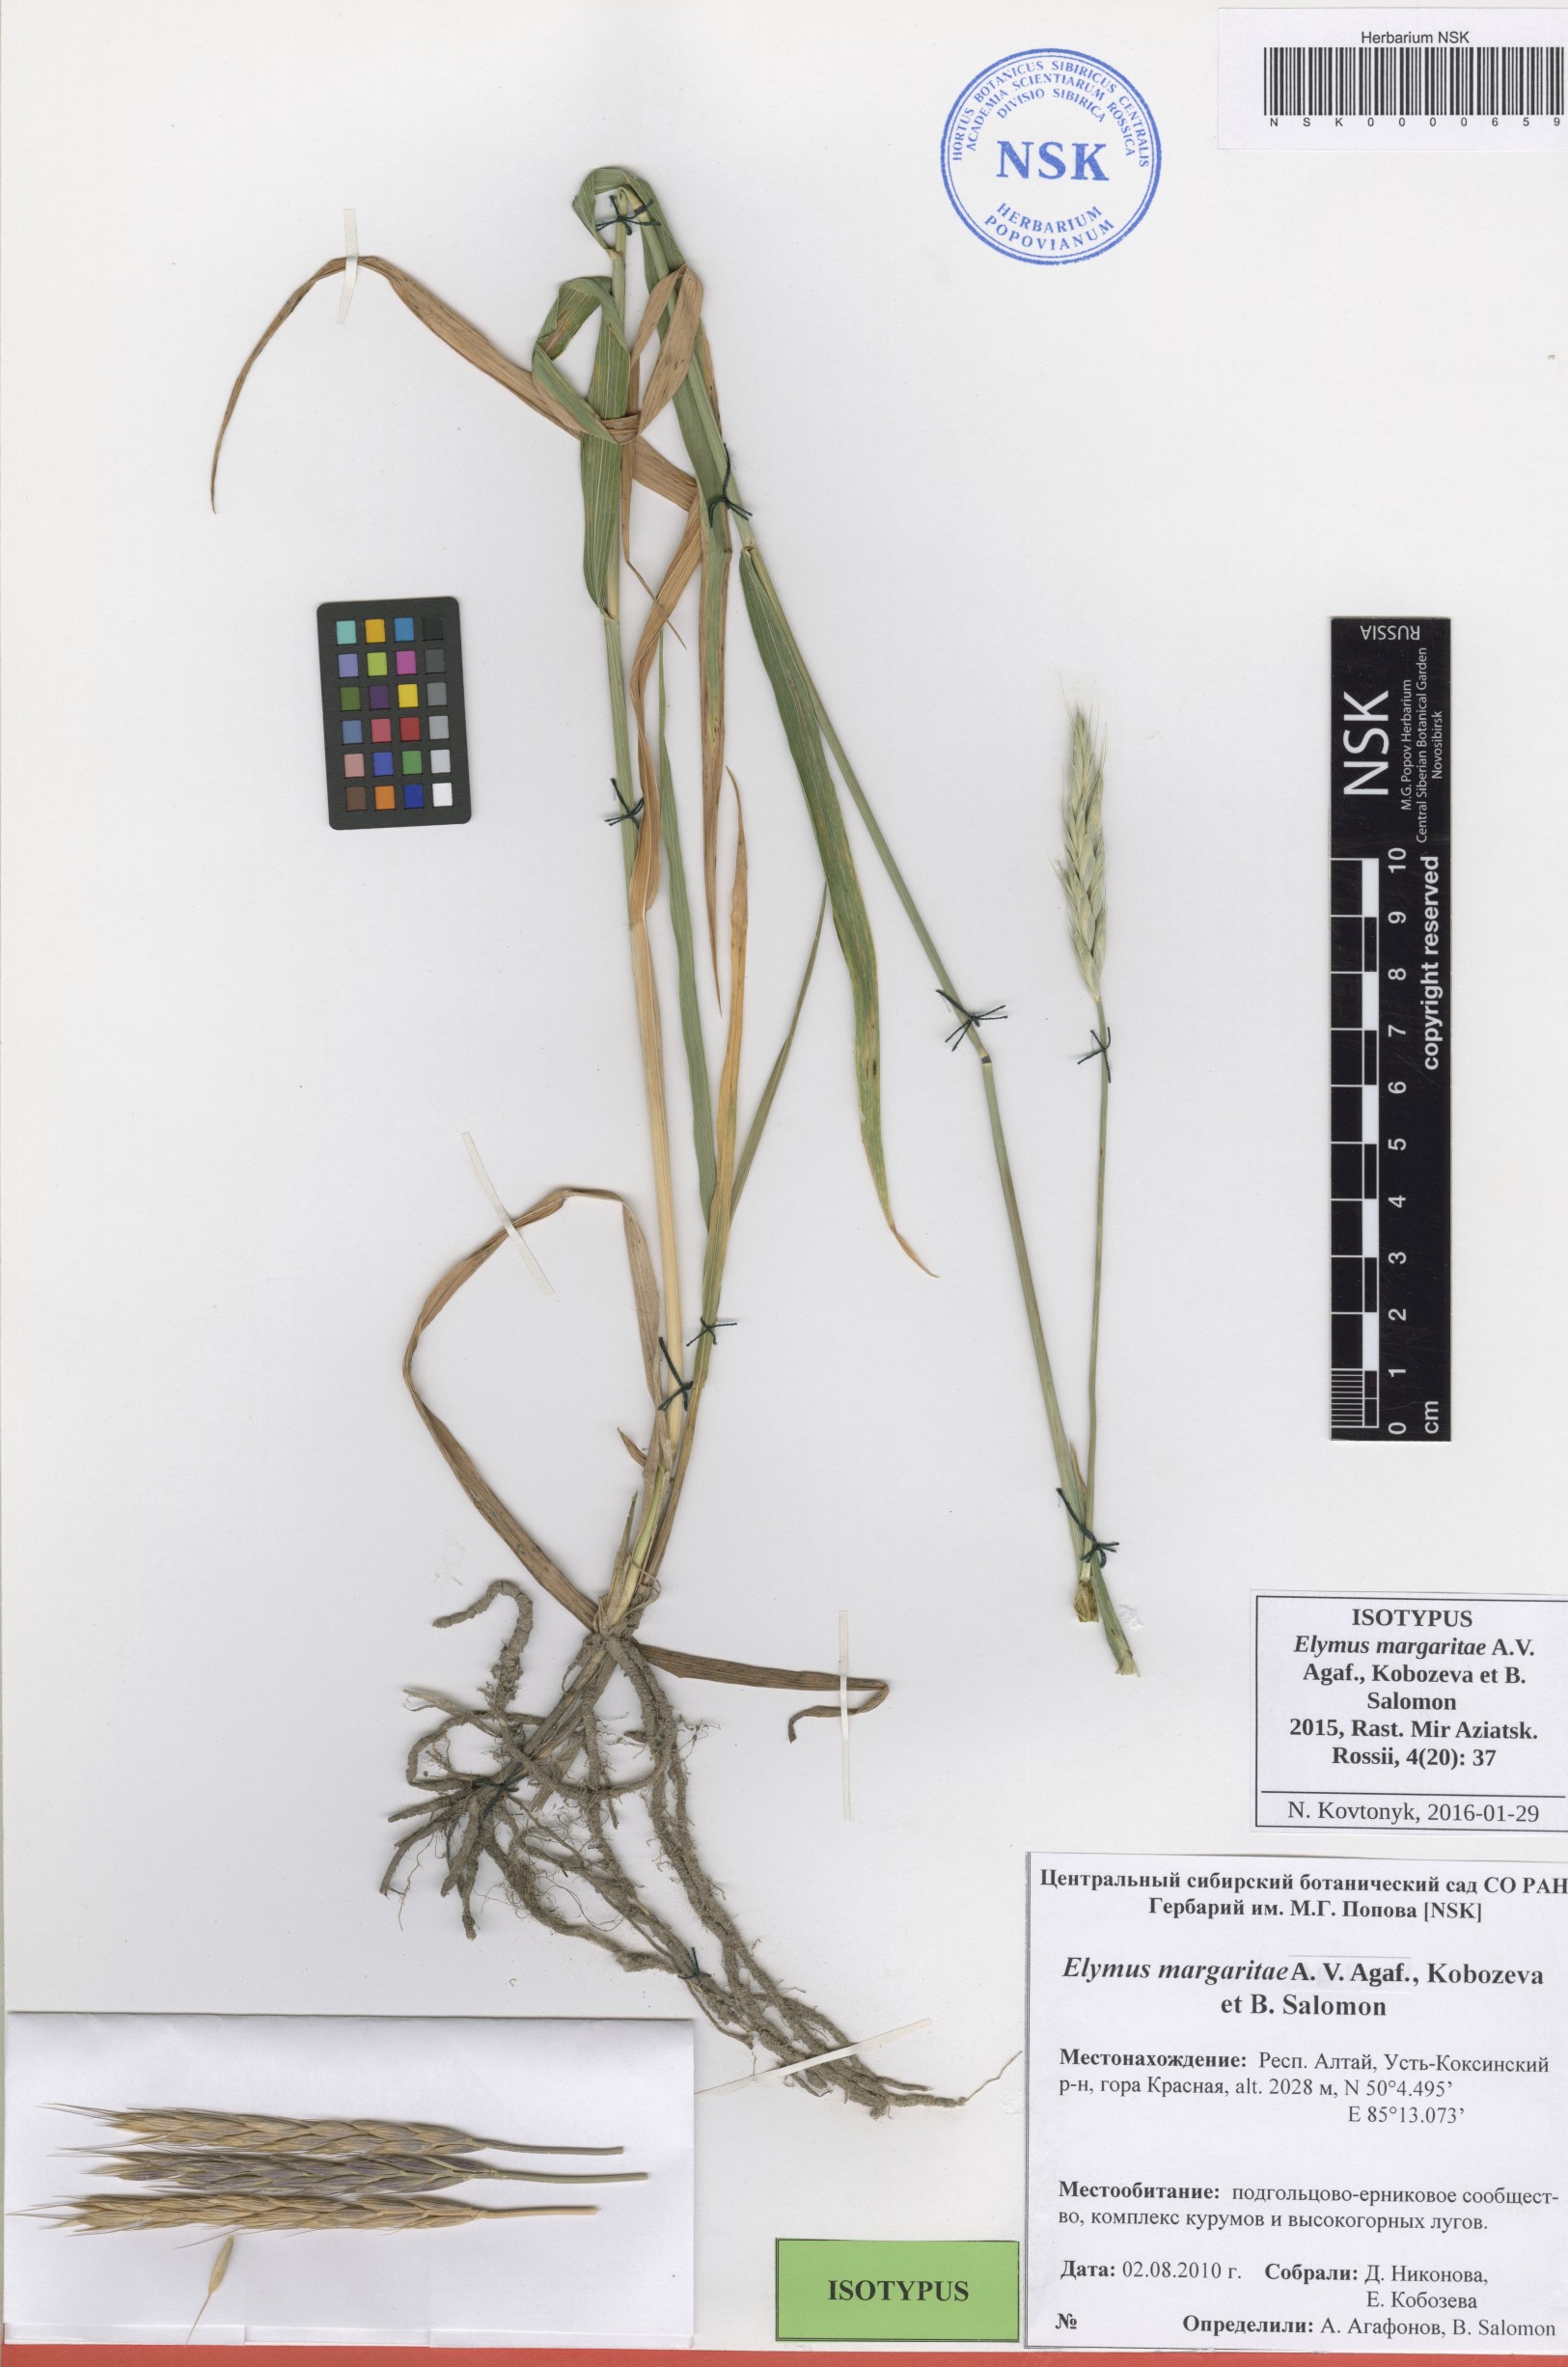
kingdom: Plantae
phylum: Tracheophyta
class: Liliopsida
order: Poales
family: Poaceae
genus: Elymus
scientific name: Elymus margaritae
